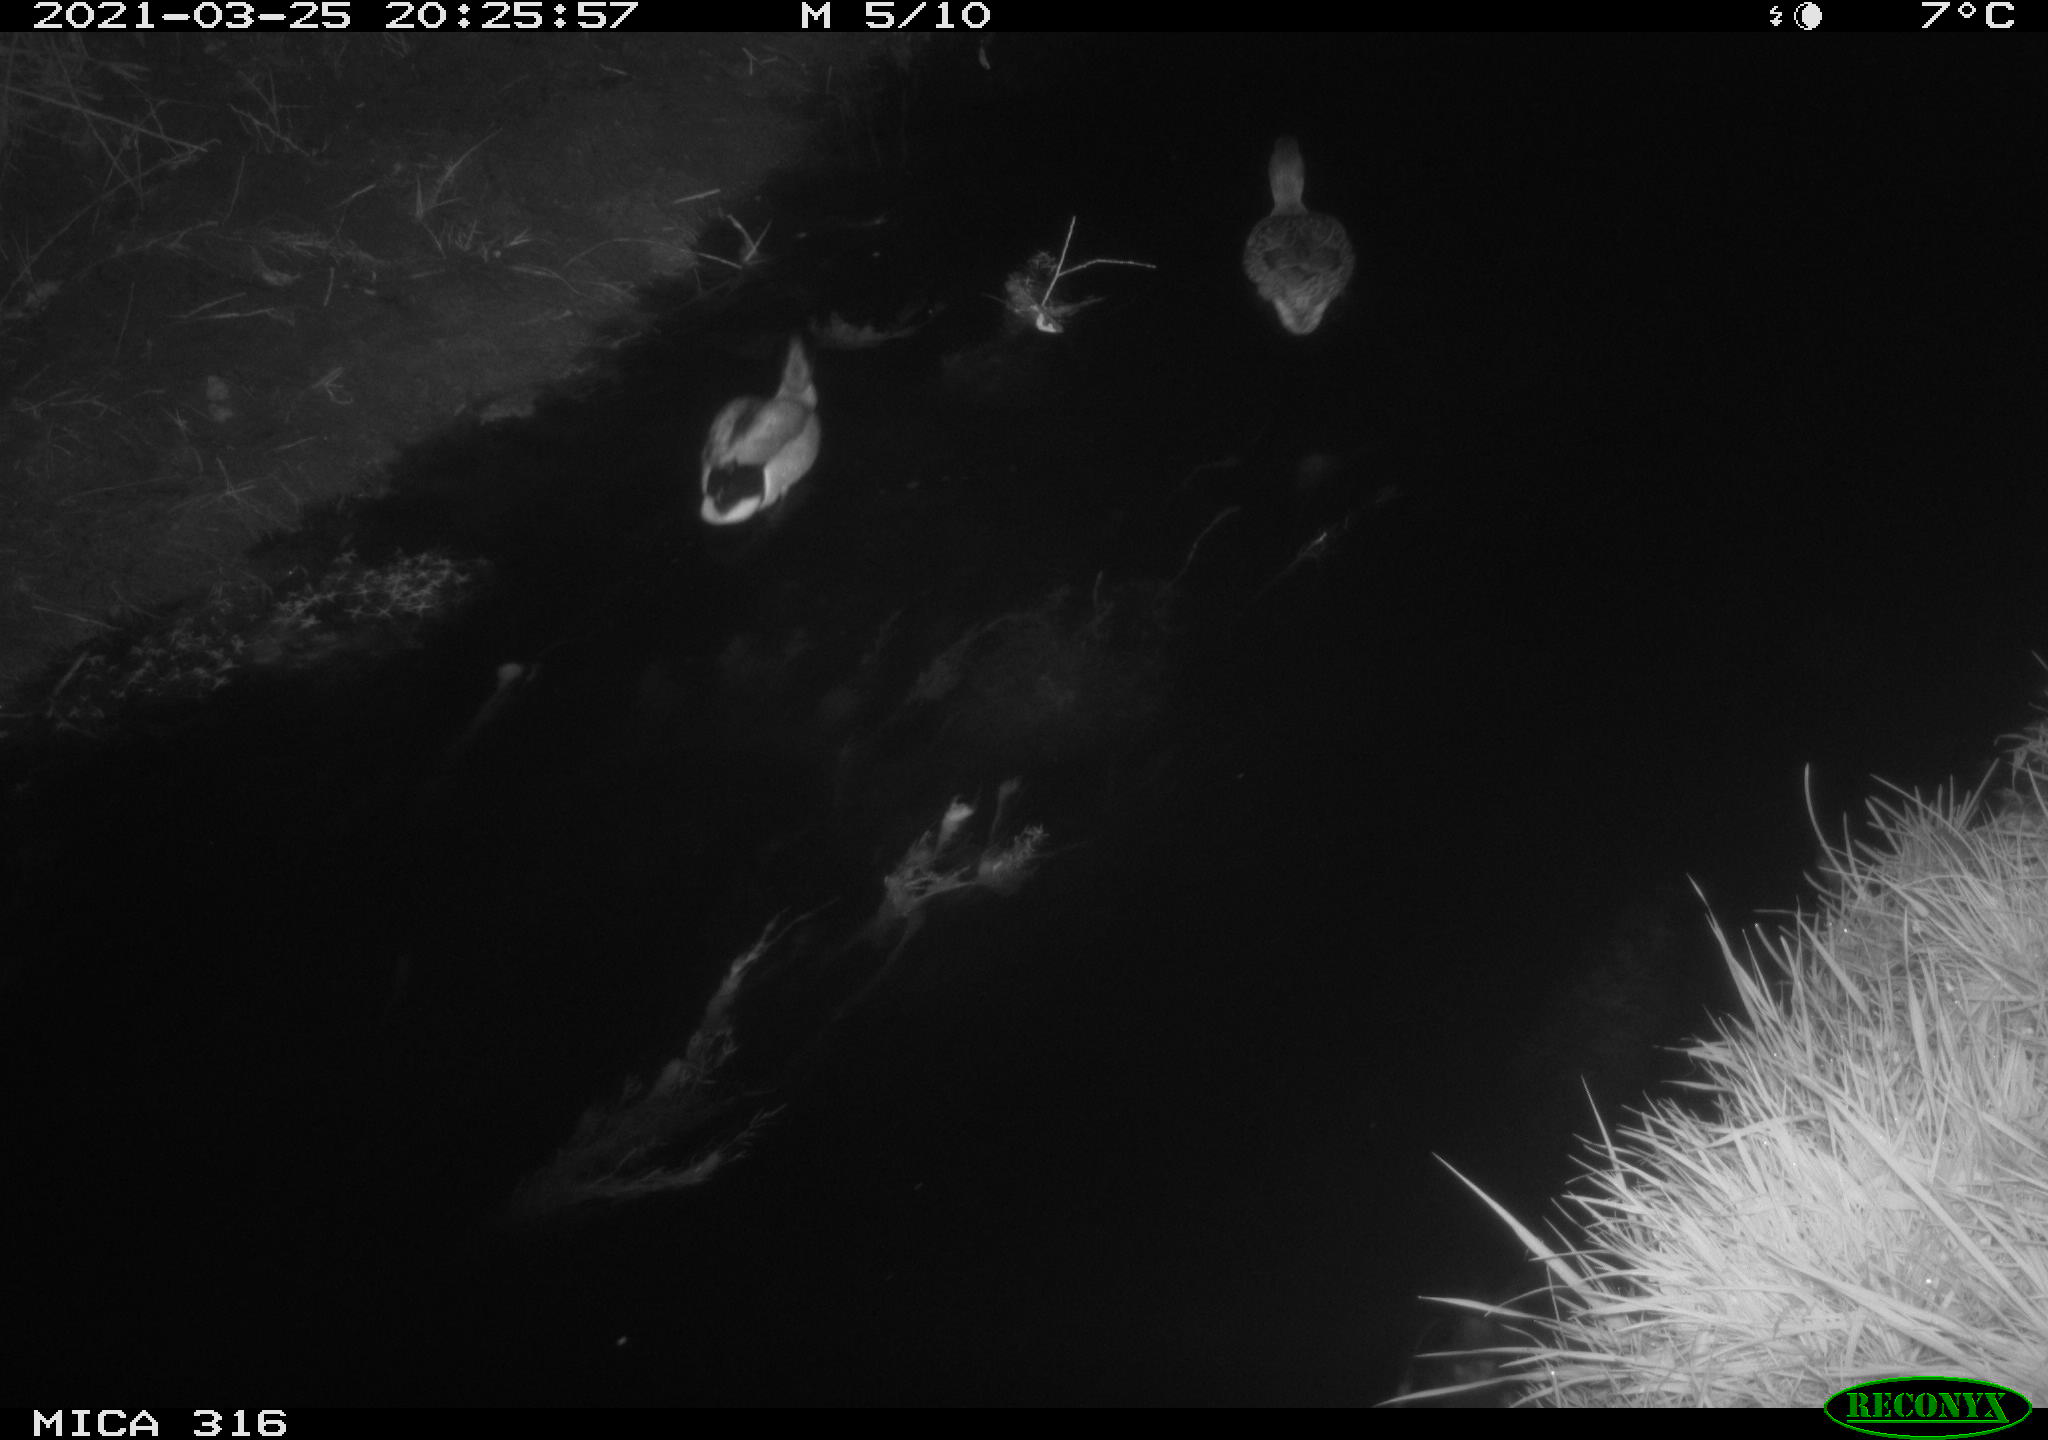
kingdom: Animalia
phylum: Chordata
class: Aves
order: Anseriformes
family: Anatidae
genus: Anas
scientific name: Anas platyrhynchos
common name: Mallard
